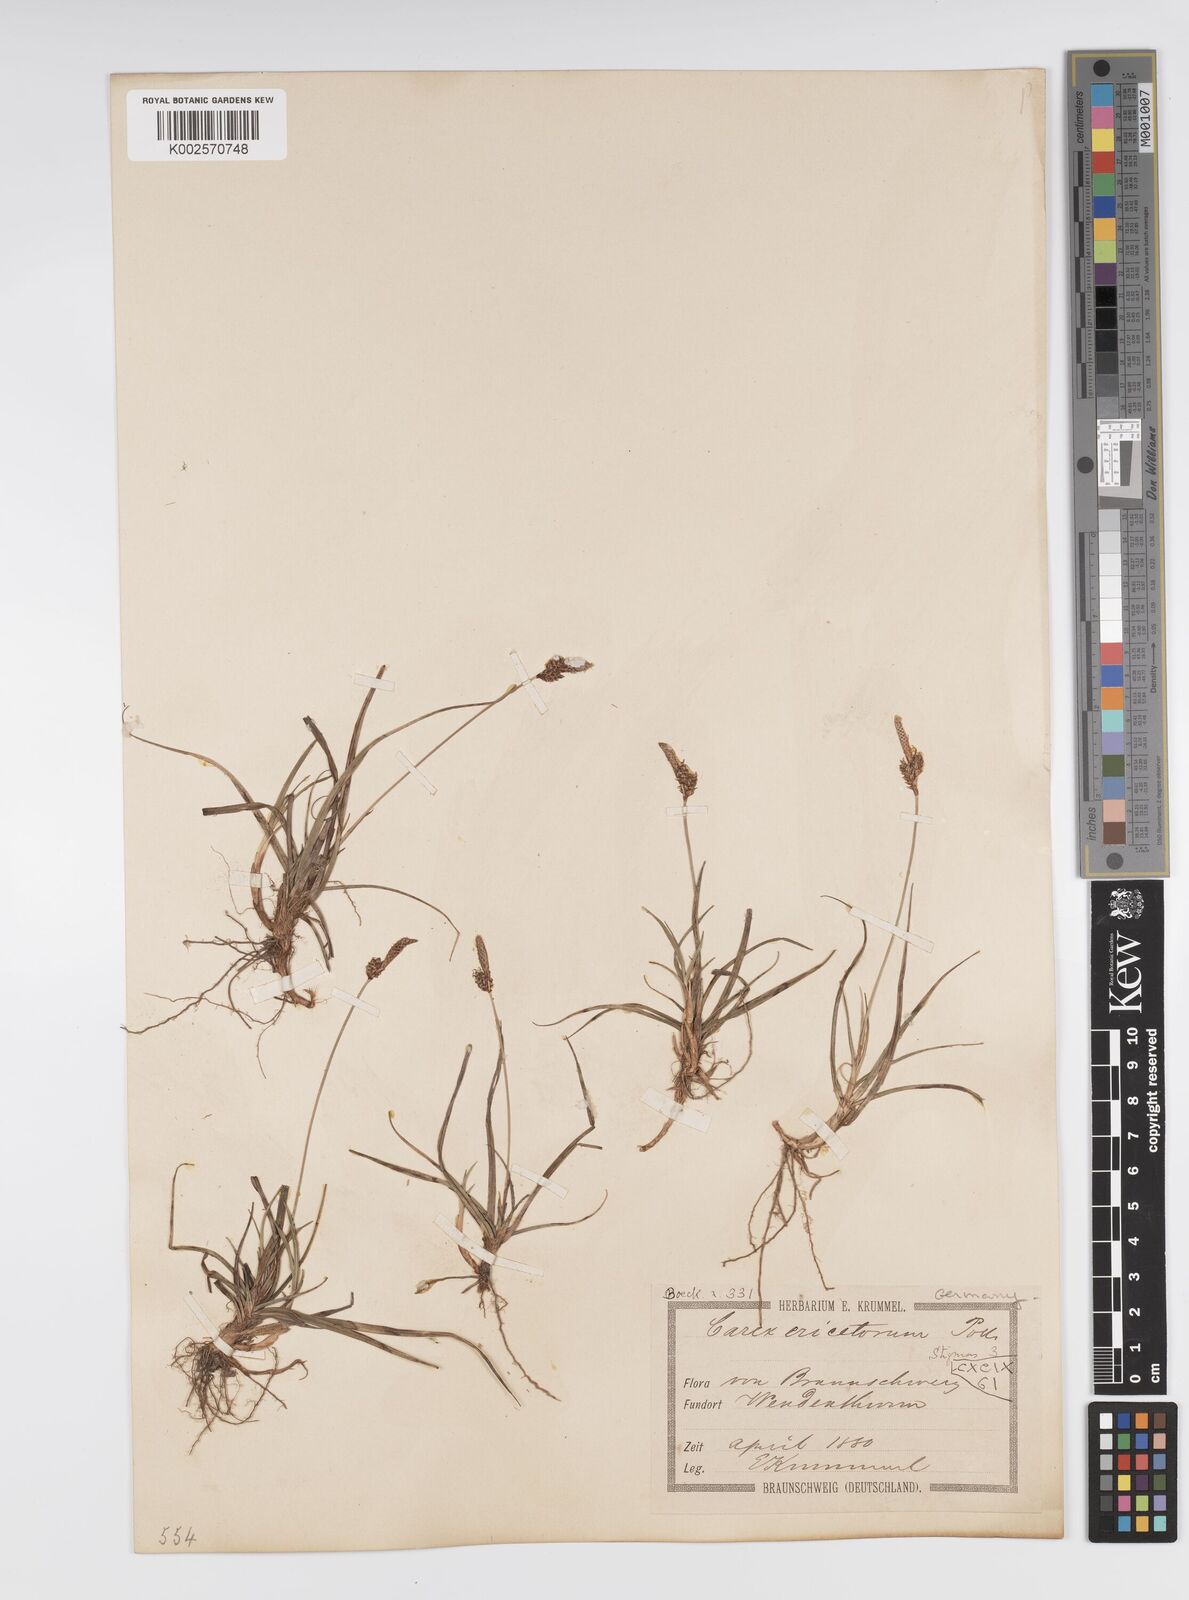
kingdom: Plantae
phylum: Tracheophyta
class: Liliopsida
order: Poales
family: Cyperaceae
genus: Carex
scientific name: Carex ericetorum
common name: Rare spring-sedge
